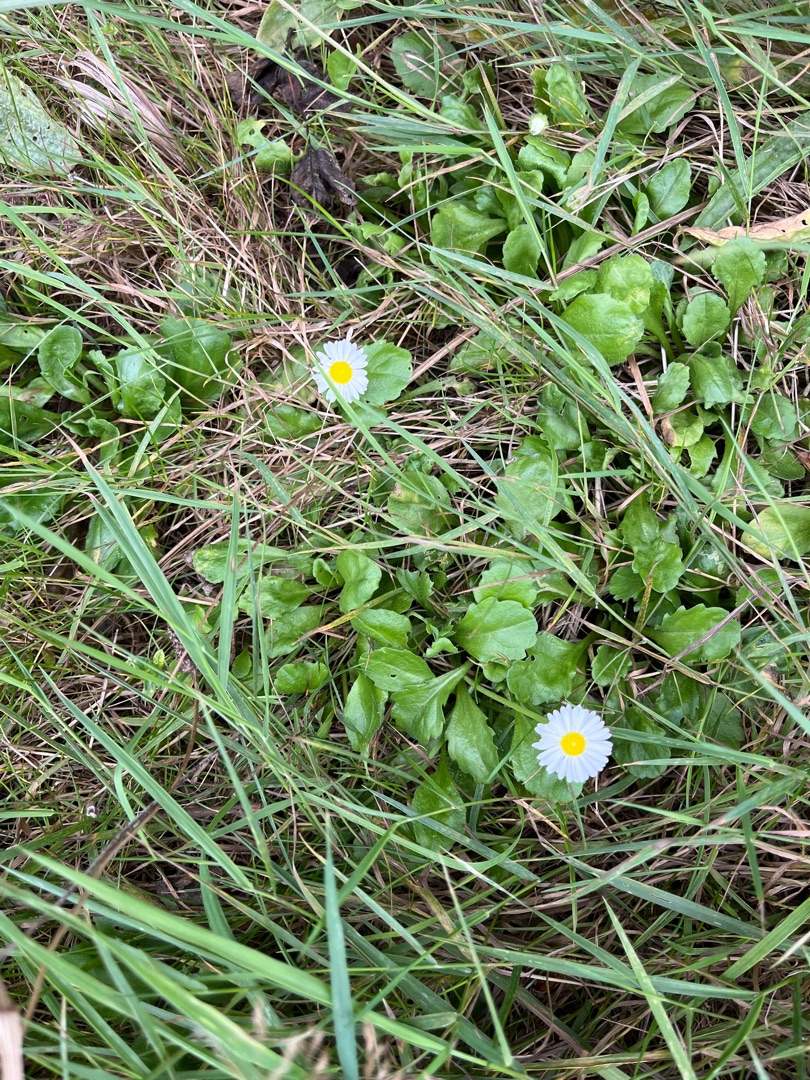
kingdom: Plantae
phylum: Tracheophyta
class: Magnoliopsida
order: Asterales
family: Asteraceae
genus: Bellis
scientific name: Bellis perennis
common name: Tusindfryd
